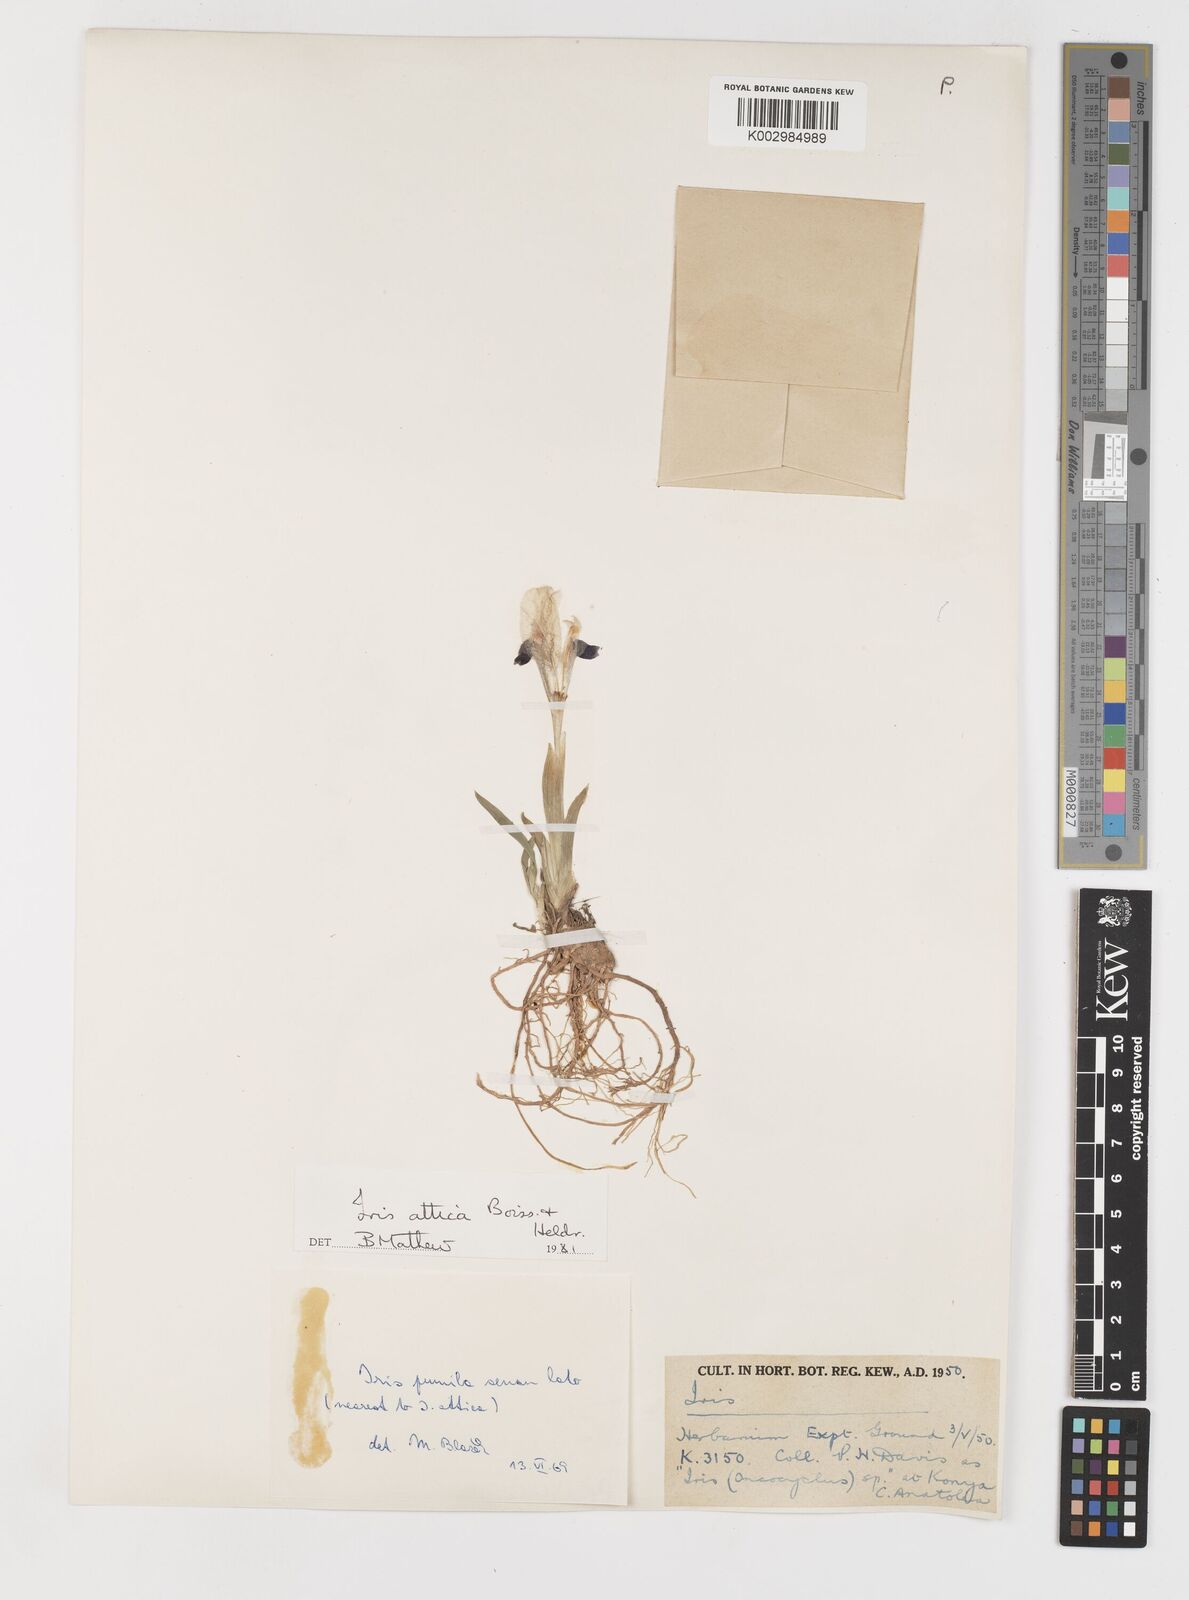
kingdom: Plantae
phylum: Tracheophyta
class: Liliopsida
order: Asparagales
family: Iridaceae
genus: Iris
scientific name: Iris pumila
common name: Dwarf iris
